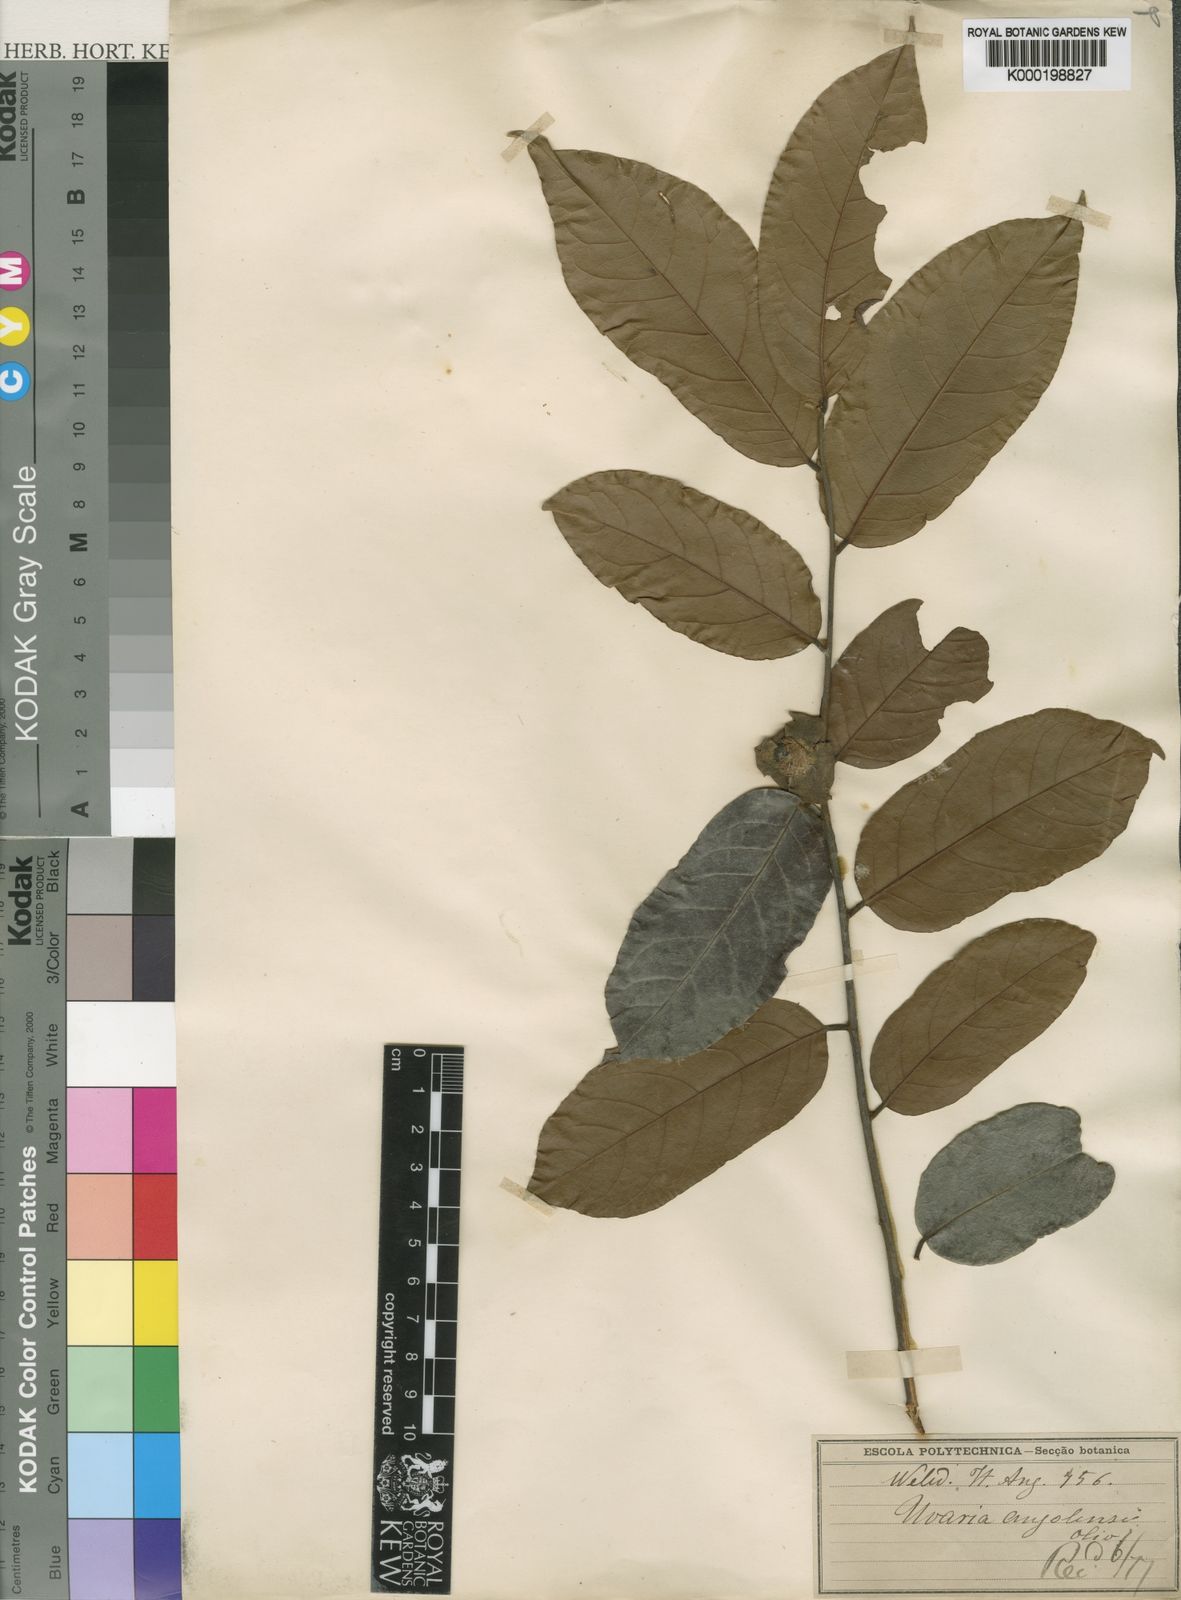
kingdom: Plantae
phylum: Tracheophyta
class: Magnoliopsida
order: Magnoliales
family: Annonaceae
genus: Uvaria
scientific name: Uvaria angolensis
